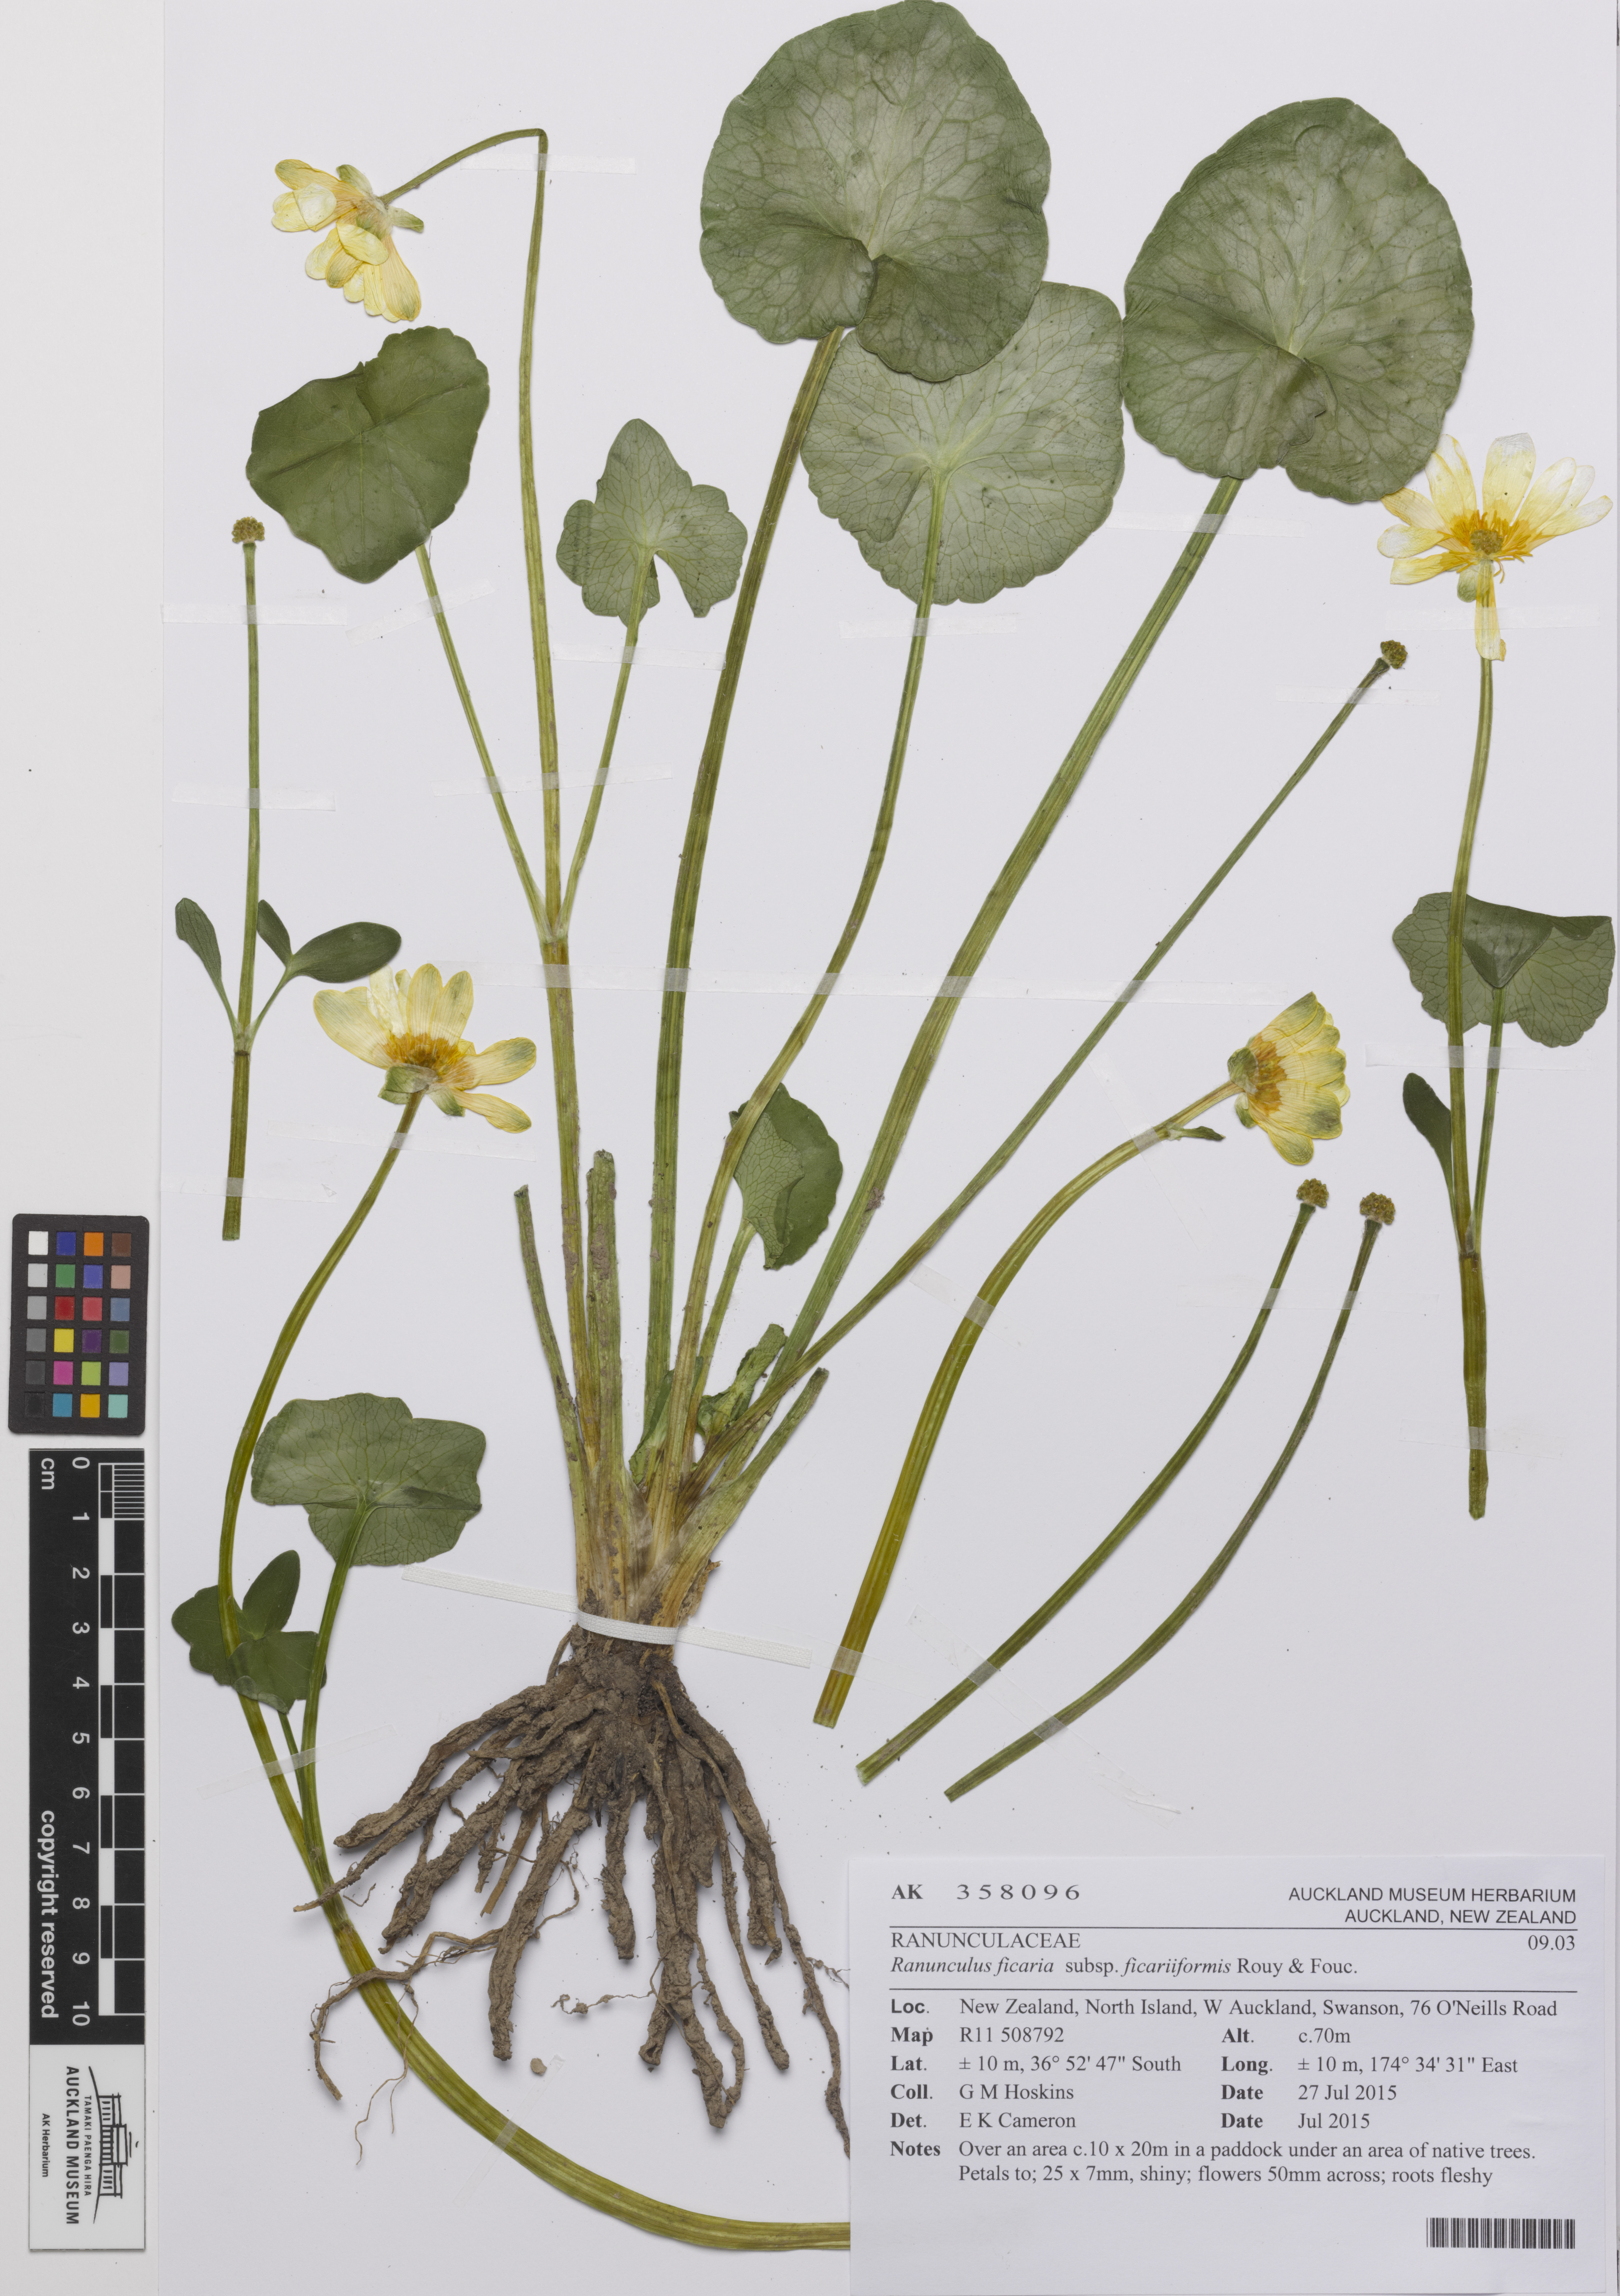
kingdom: Plantae
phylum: Tracheophyta
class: Magnoliopsida
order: Ranunculales
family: Ranunculaceae
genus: Ficaria
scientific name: Ficaria grandiflora
